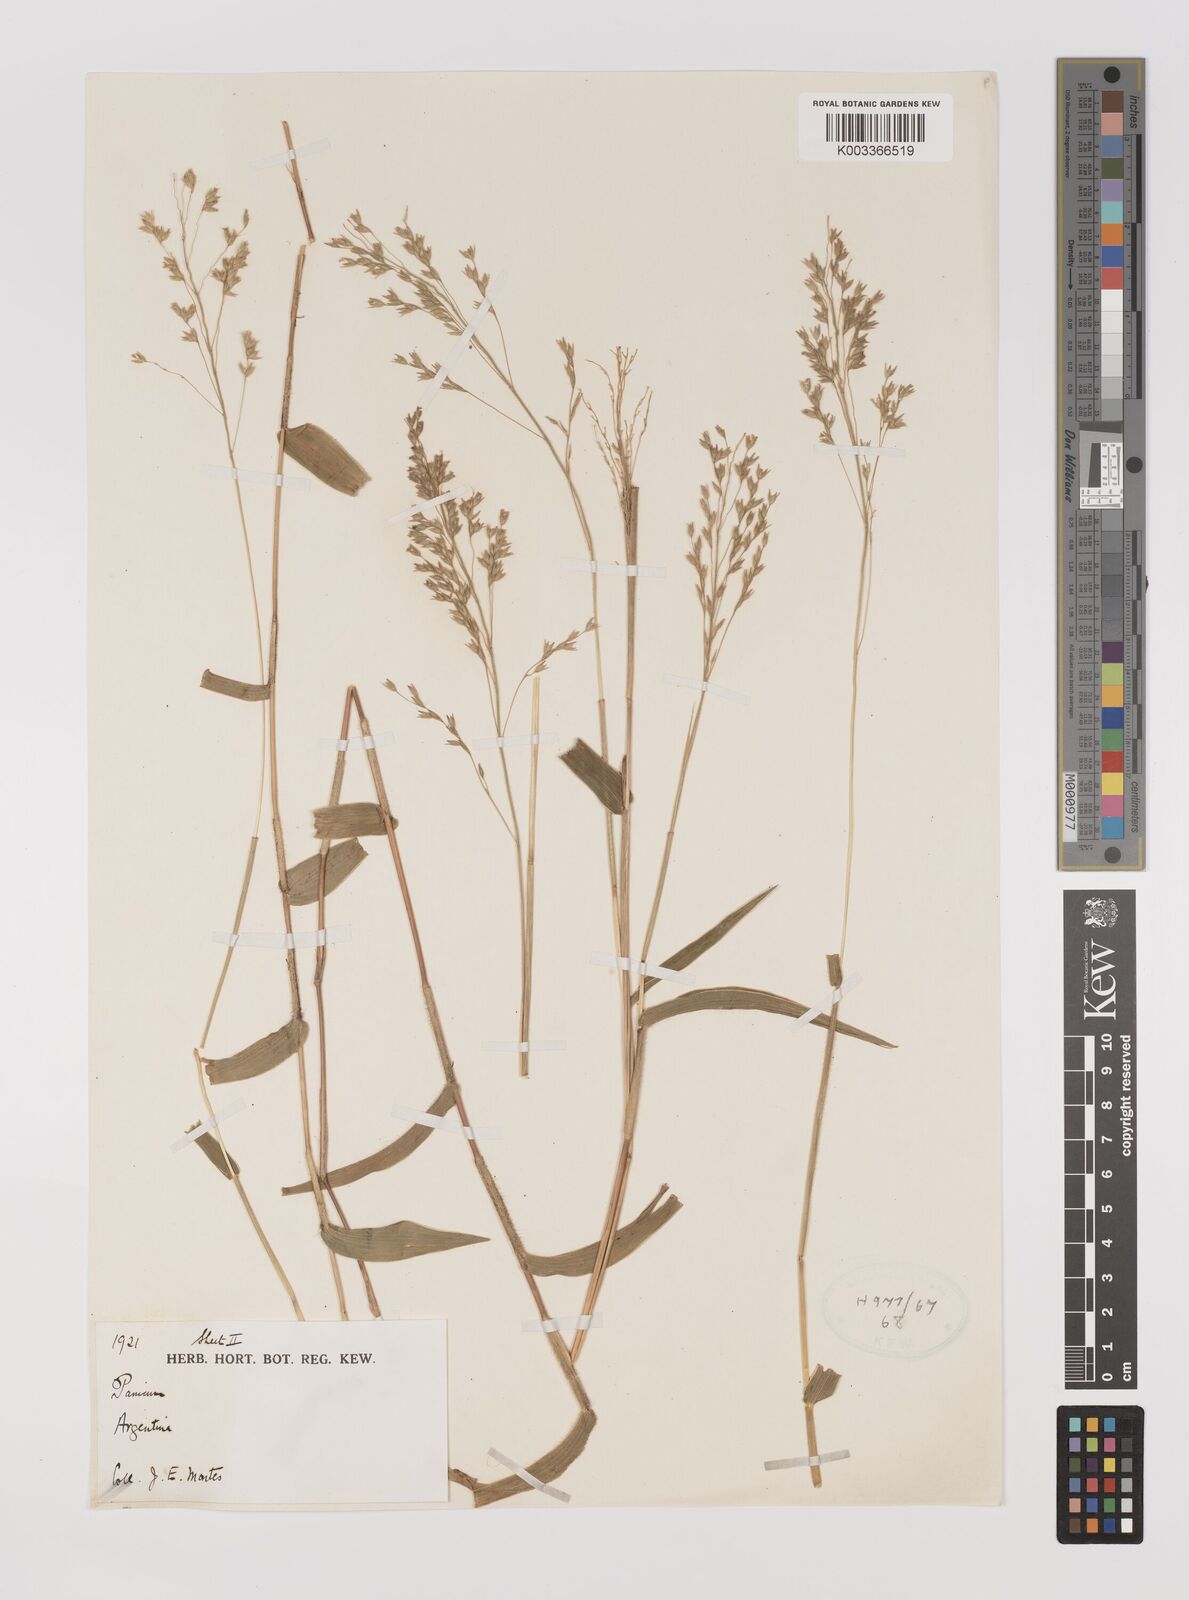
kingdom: Plantae
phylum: Tracheophyta
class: Liliopsida
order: Poales
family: Poaceae
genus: Oedochloa
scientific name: Oedochloa procurrens
